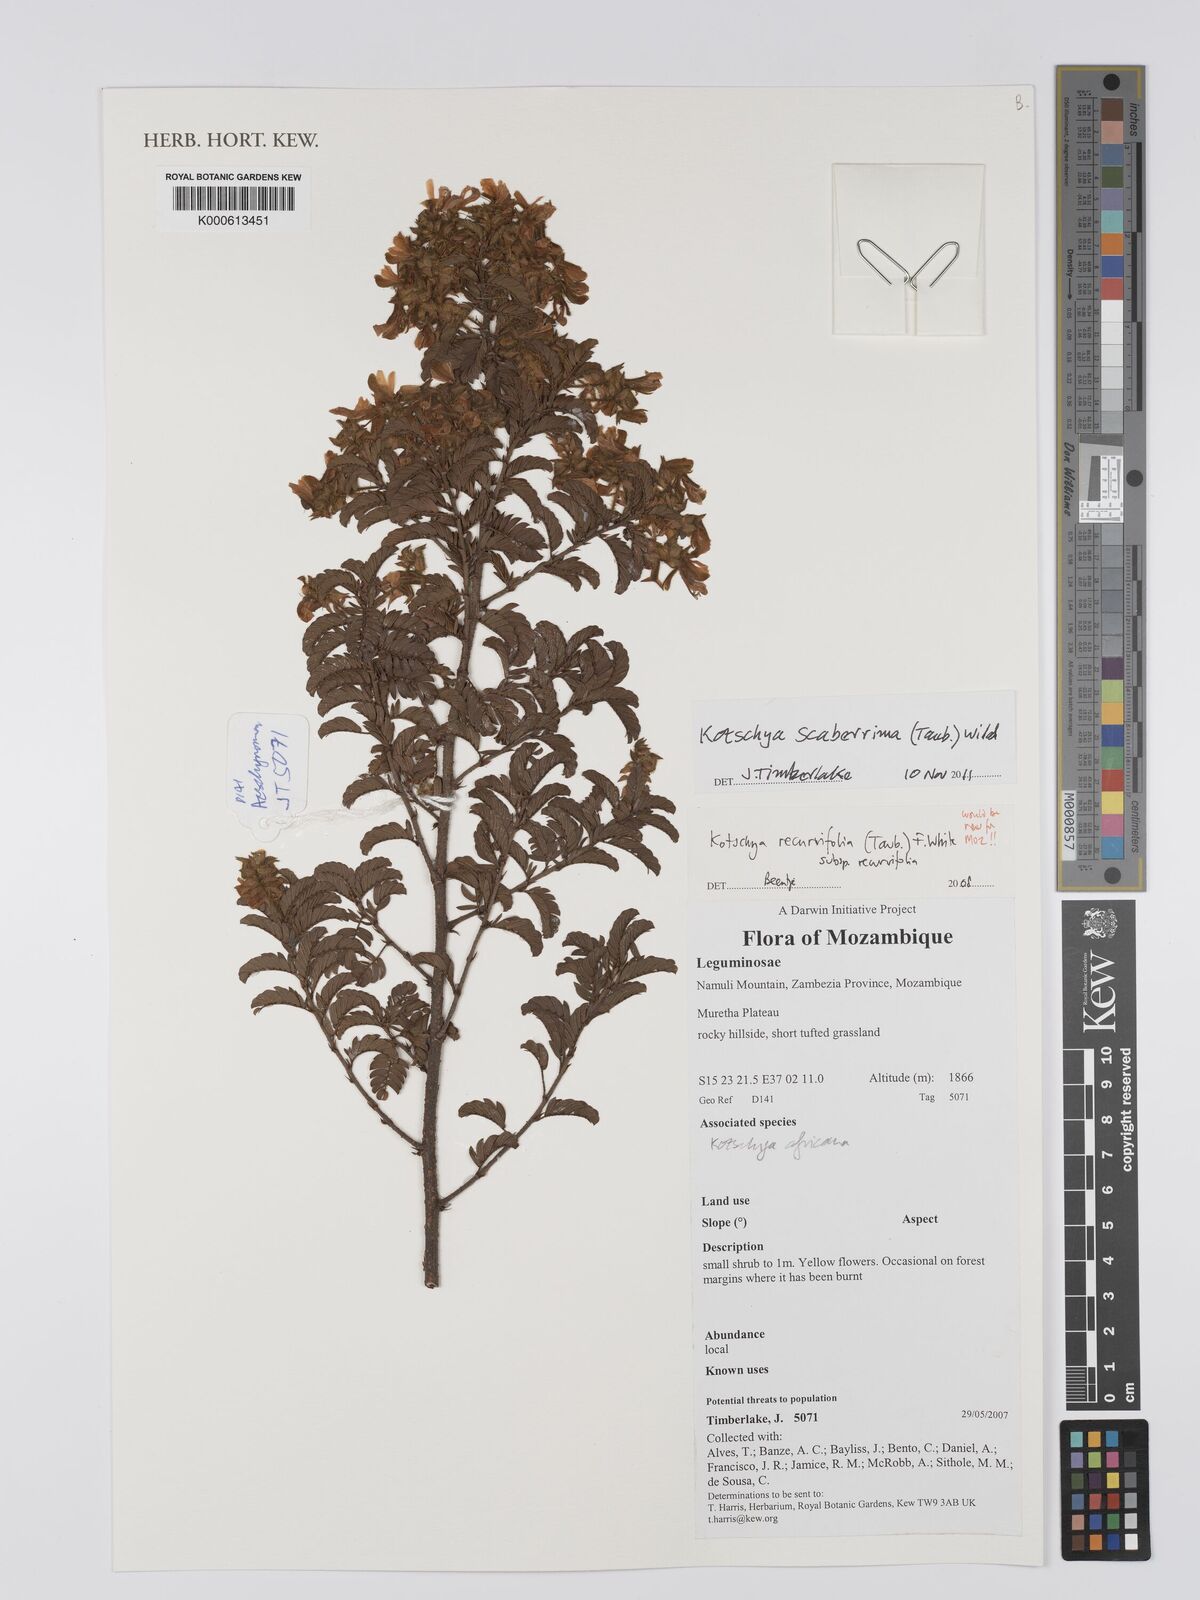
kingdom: Plantae
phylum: Tracheophyta
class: Magnoliopsida
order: Fabales
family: Fabaceae
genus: Kotschya
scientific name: Kotschya recurvifolia
